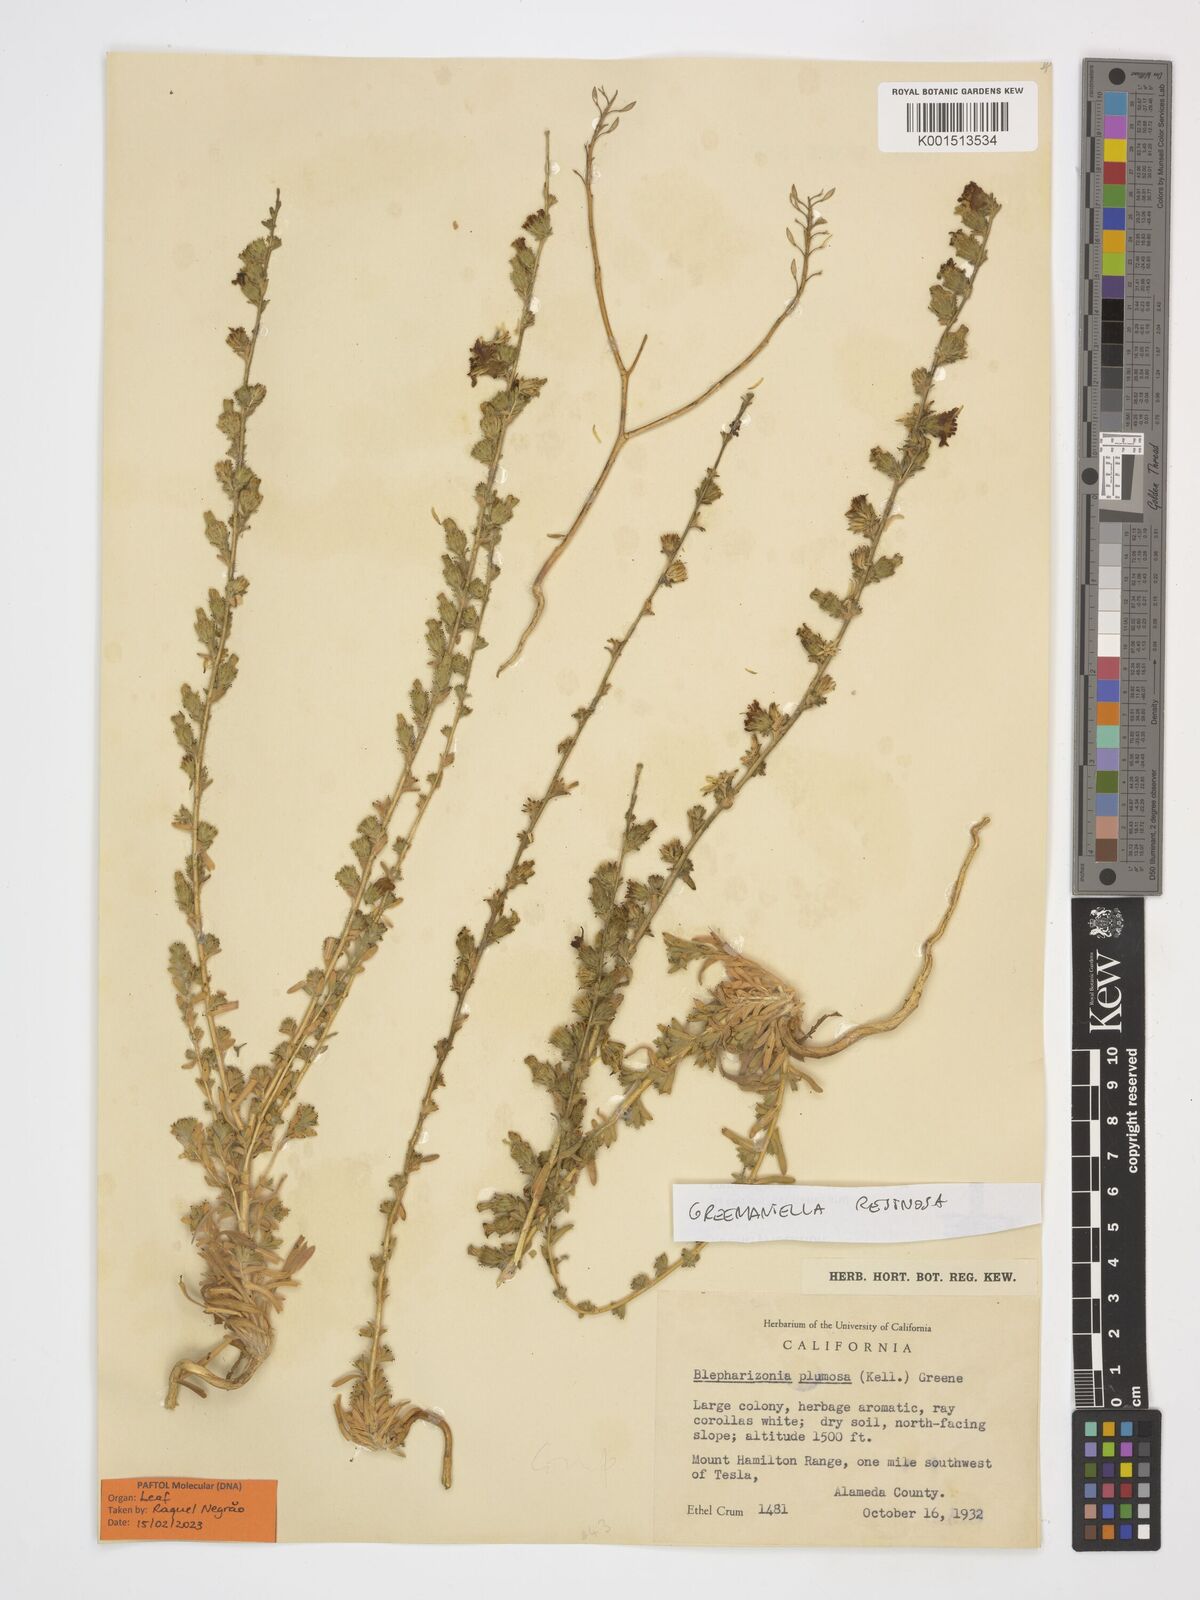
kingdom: Plantae
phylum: Tracheophyta
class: Magnoliopsida
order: Asterales
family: Asteraceae
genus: Blepharizonia
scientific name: Blepharizonia plumosa
